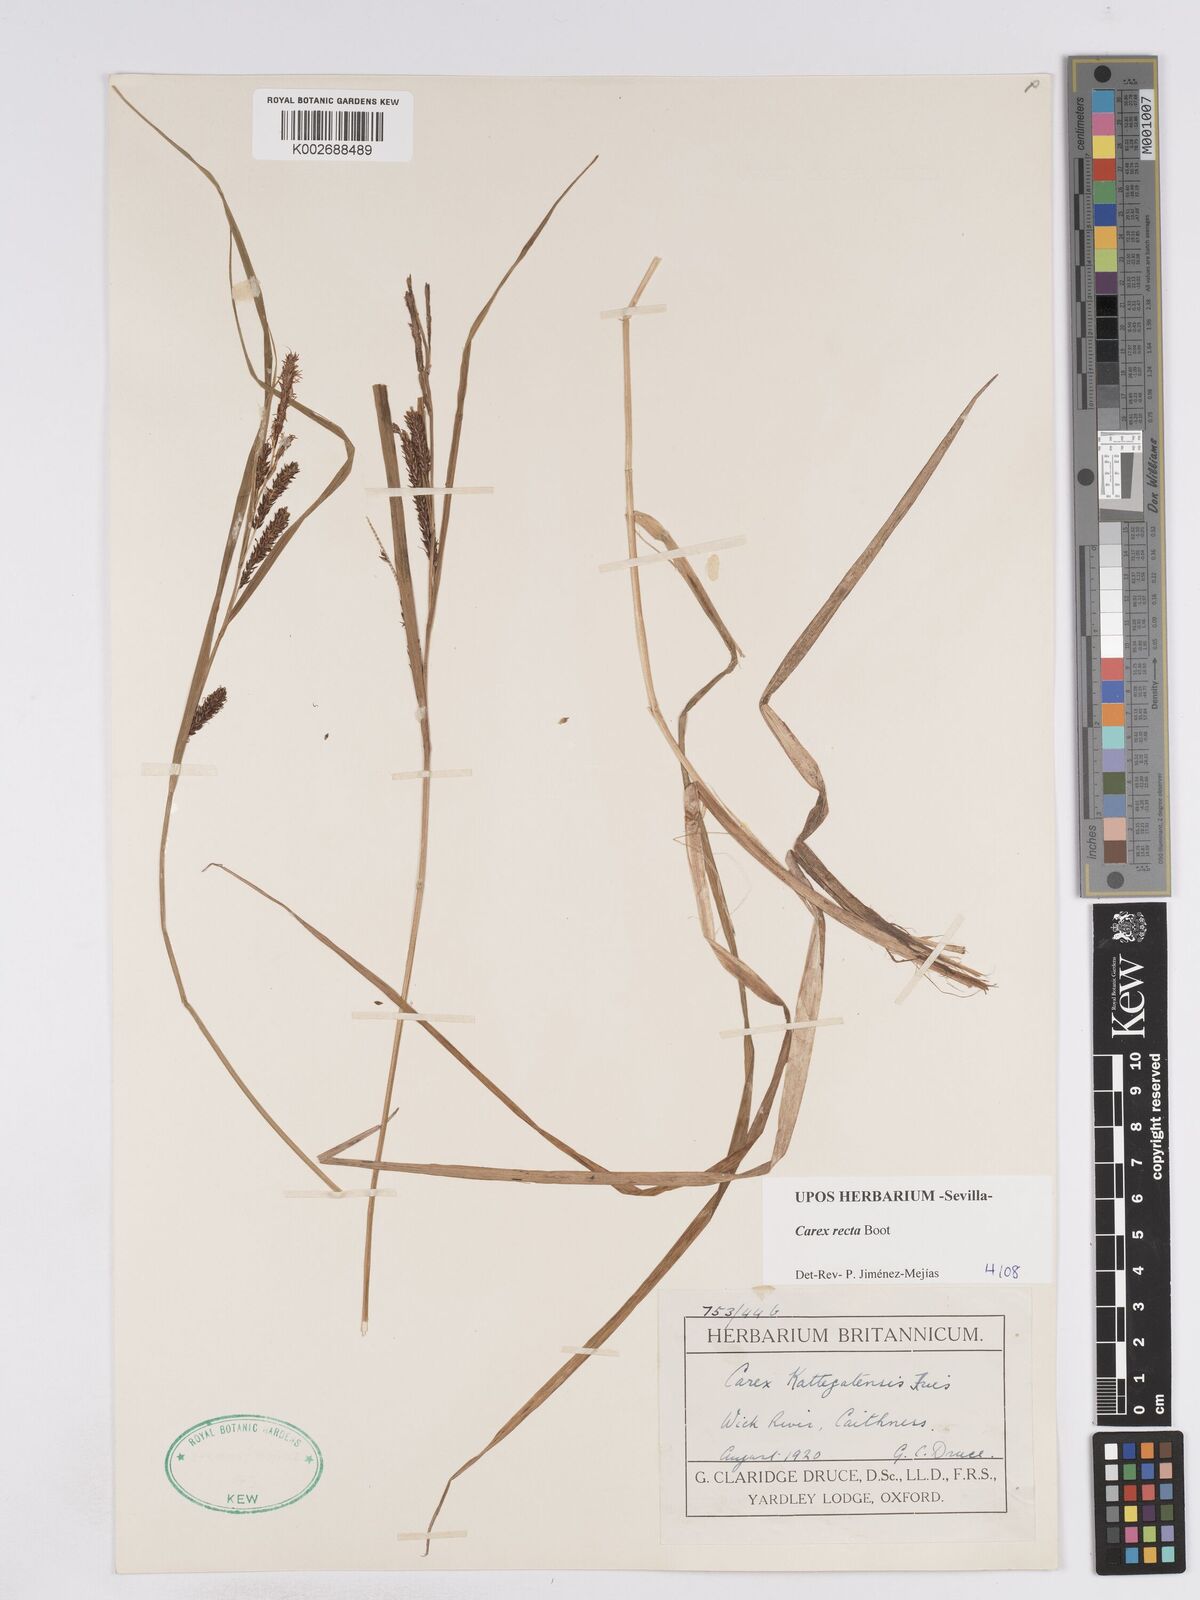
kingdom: Plantae
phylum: Tracheophyta
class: Liliopsida
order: Poales
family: Cyperaceae
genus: Carex
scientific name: Carex recta
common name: Estuarine sedge
